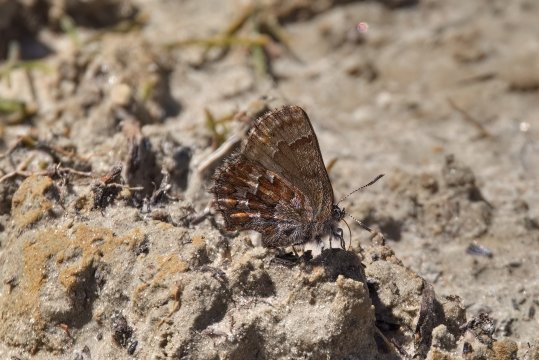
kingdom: Animalia
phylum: Arthropoda
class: Insecta
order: Lepidoptera
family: Lycaenidae
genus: Incisalia
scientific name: Incisalia eryphon
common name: Western Pine Elfin
